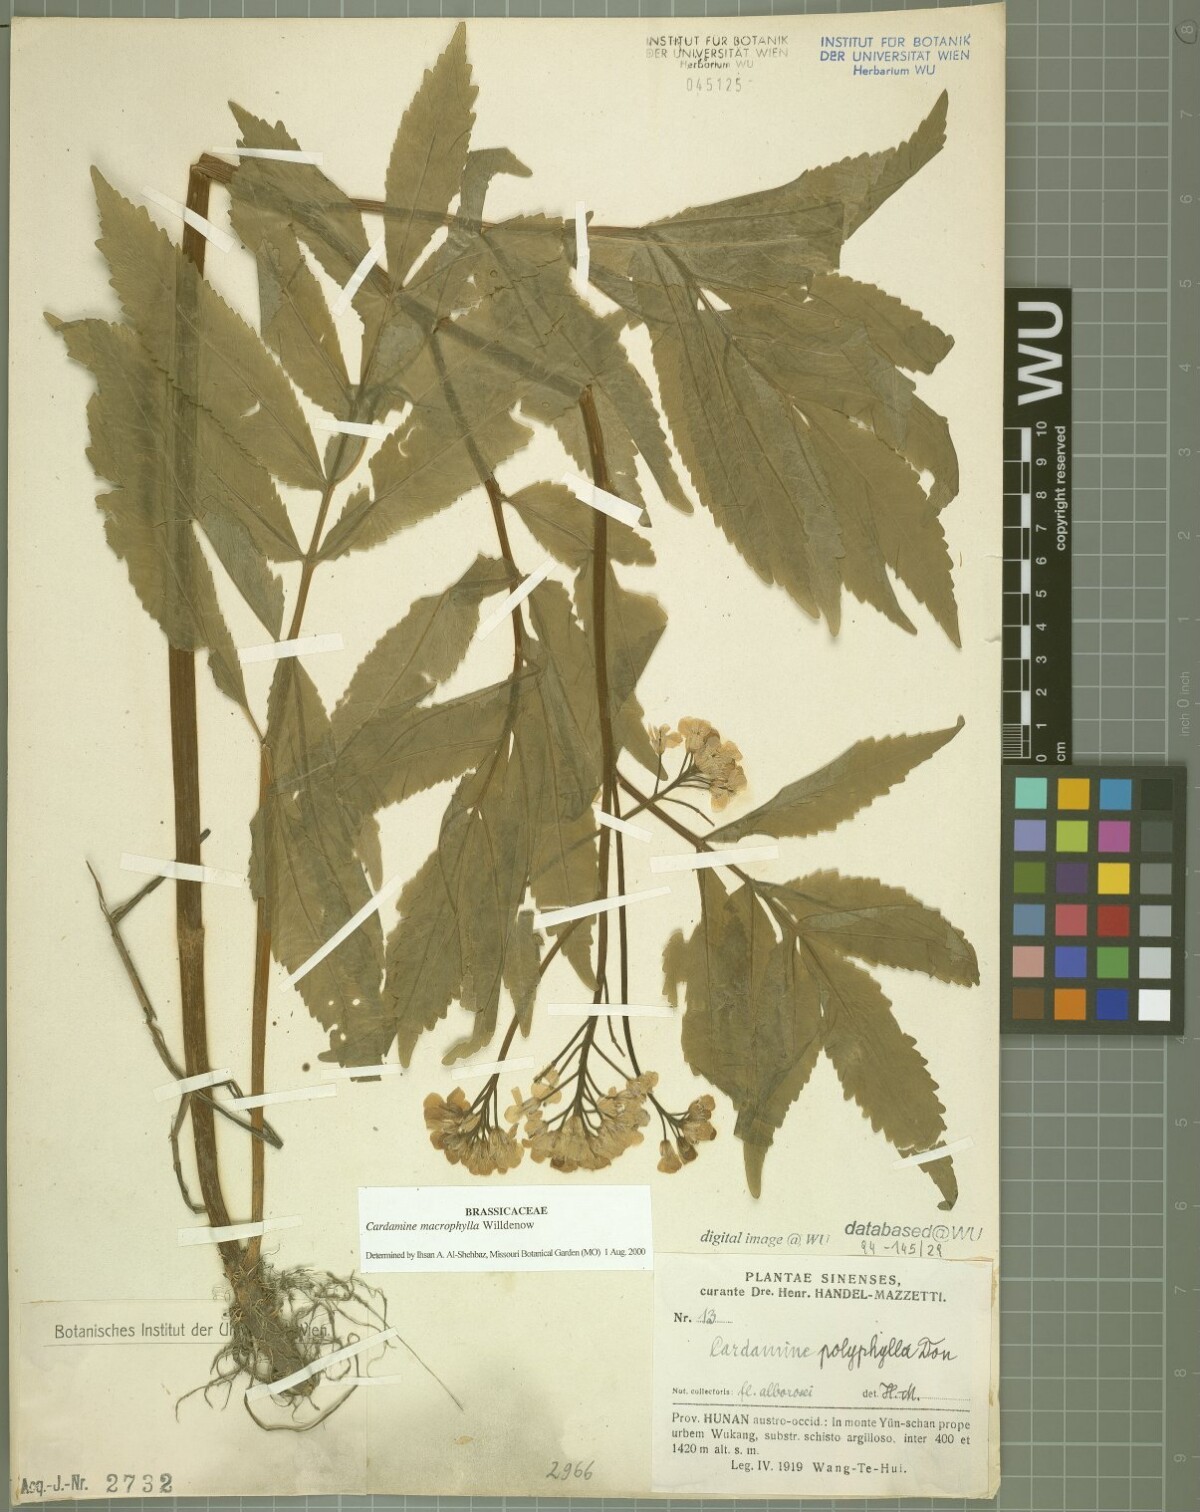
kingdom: Plantae
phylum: Tracheophyta
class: Magnoliopsida
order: Brassicales
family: Brassicaceae
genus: Cardamine
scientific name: Cardamine macrophylla
